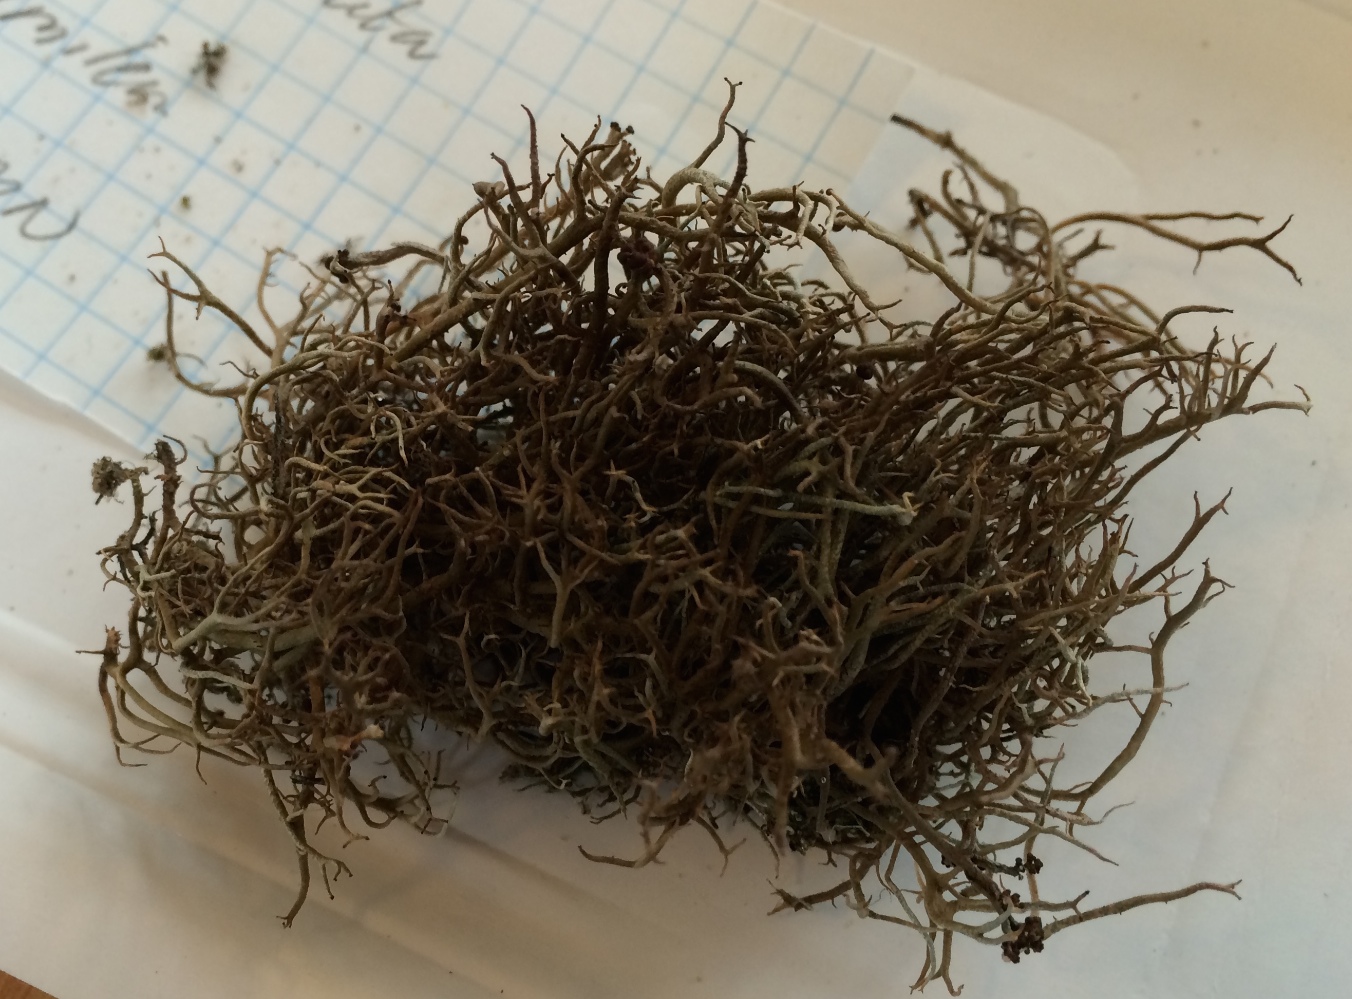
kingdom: Fungi
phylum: Ascomycota
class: Lecanoromycetes
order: Lecanorales
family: Cladoniaceae
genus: Cladonia
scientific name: Cladonia furcata
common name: kløftet bægerlav
